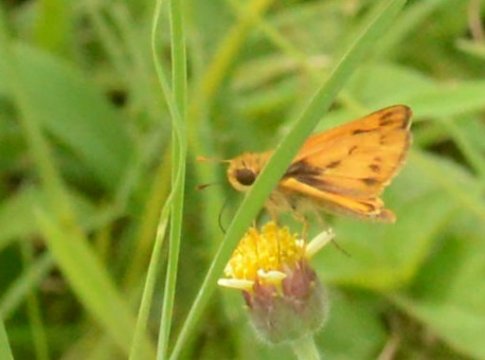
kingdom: Animalia
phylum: Arthropoda
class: Insecta
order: Lepidoptera
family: Hesperiidae
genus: Hylephila
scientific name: Hylephila phyleus
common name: Fiery Skipper
